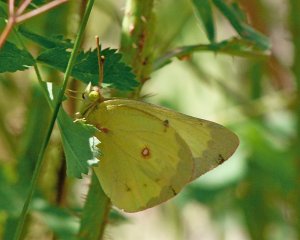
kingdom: Animalia
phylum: Arthropoda
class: Insecta
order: Lepidoptera
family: Pieridae
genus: Colias
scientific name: Colias philodice
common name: Clouded Sulphur
